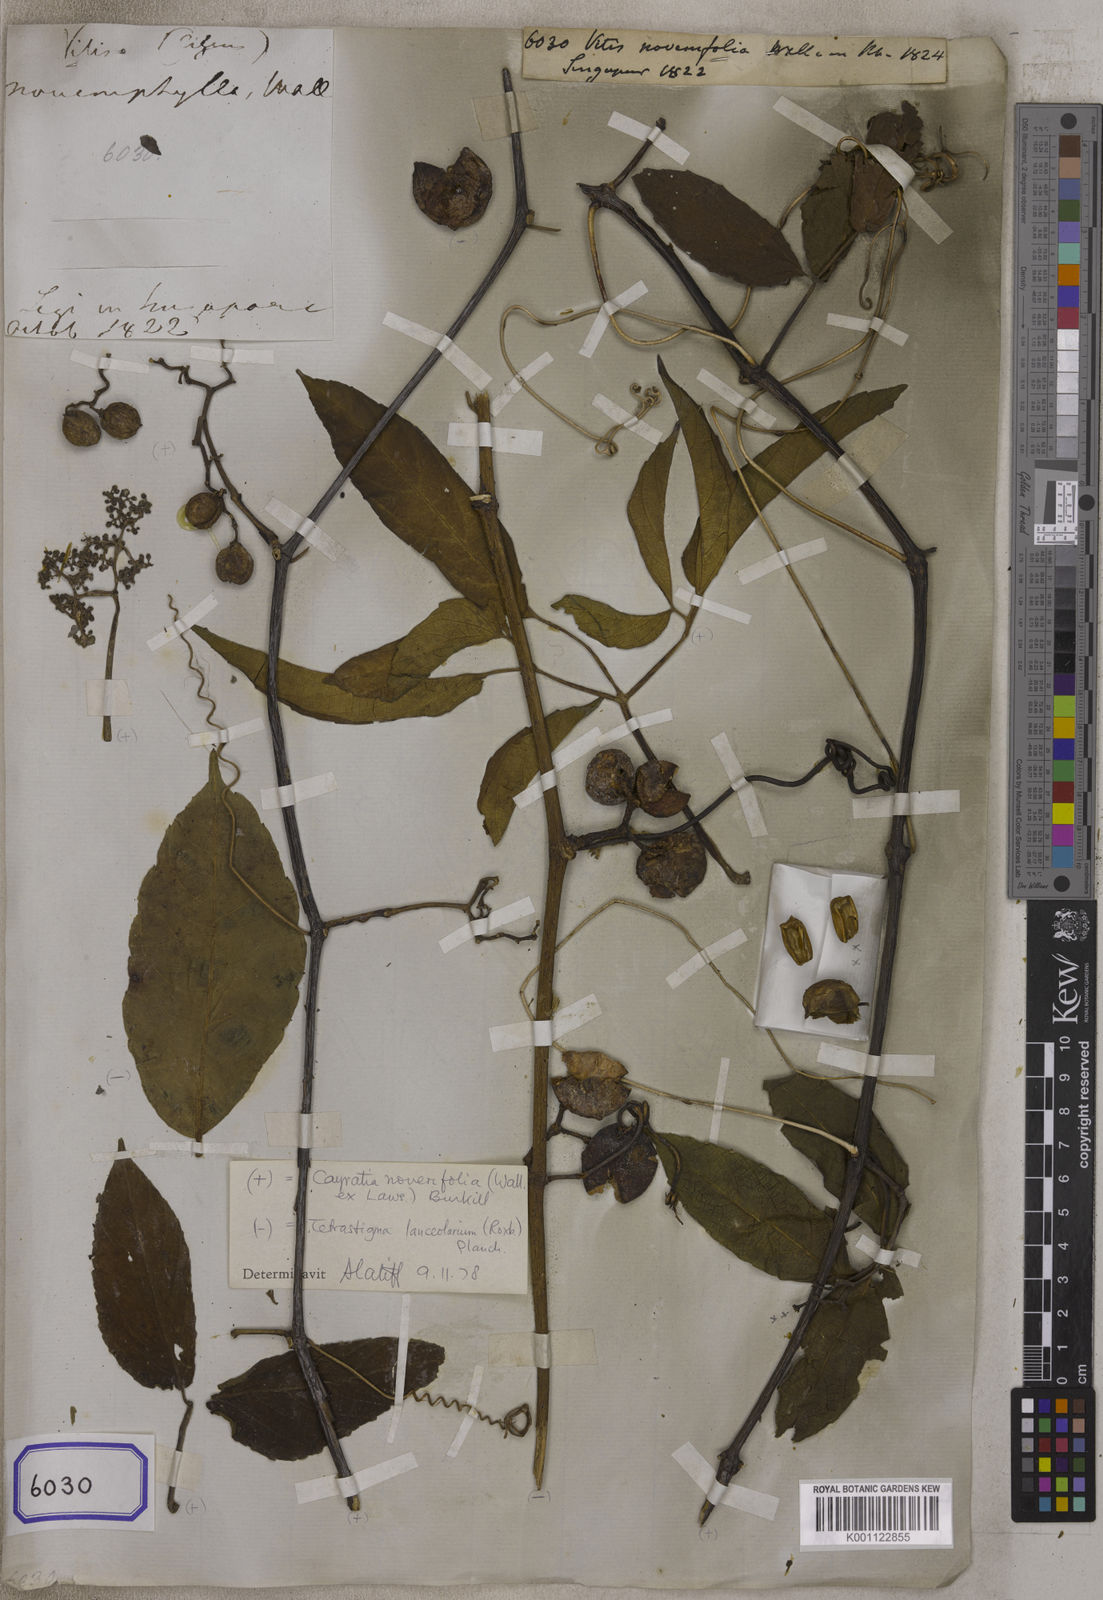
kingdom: Plantae
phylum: Tracheophyta
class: Magnoliopsida
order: Vitales
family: Vitaceae
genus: Vitis
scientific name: Vitis
